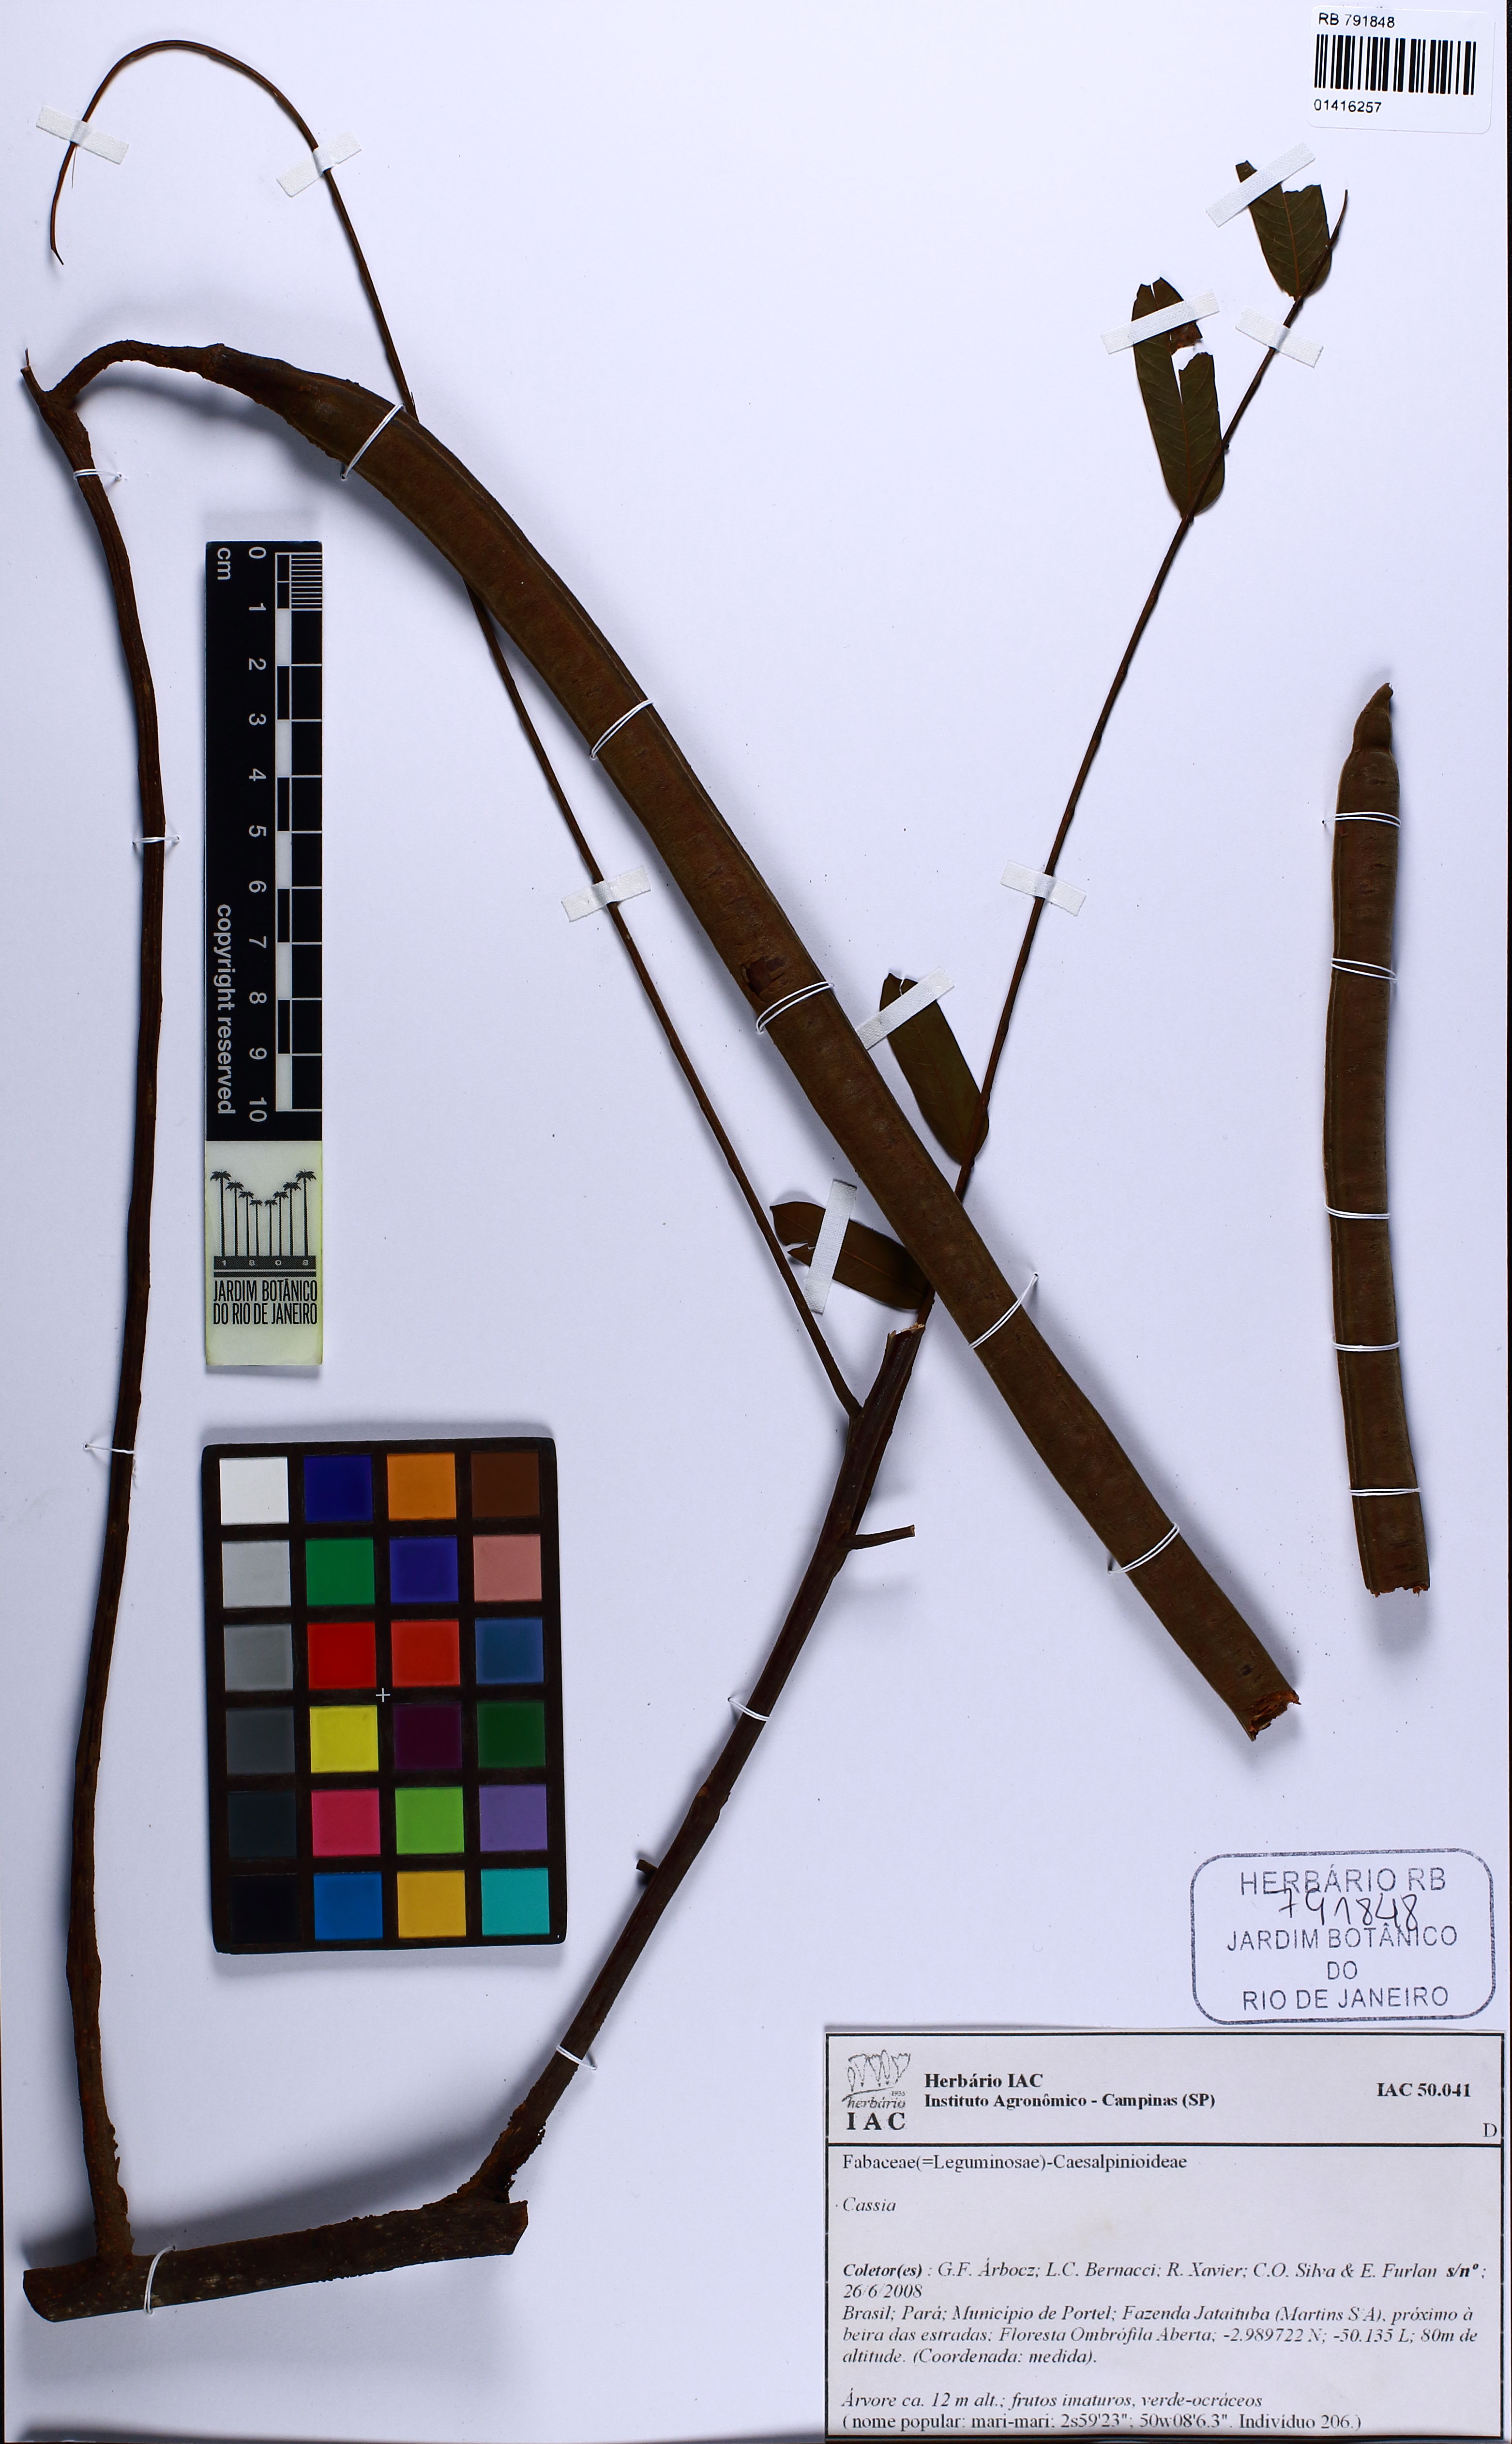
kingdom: Plantae
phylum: Tracheophyta
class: Magnoliopsida
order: Fabales
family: Fabaceae
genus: Cassia
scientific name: Cassia
